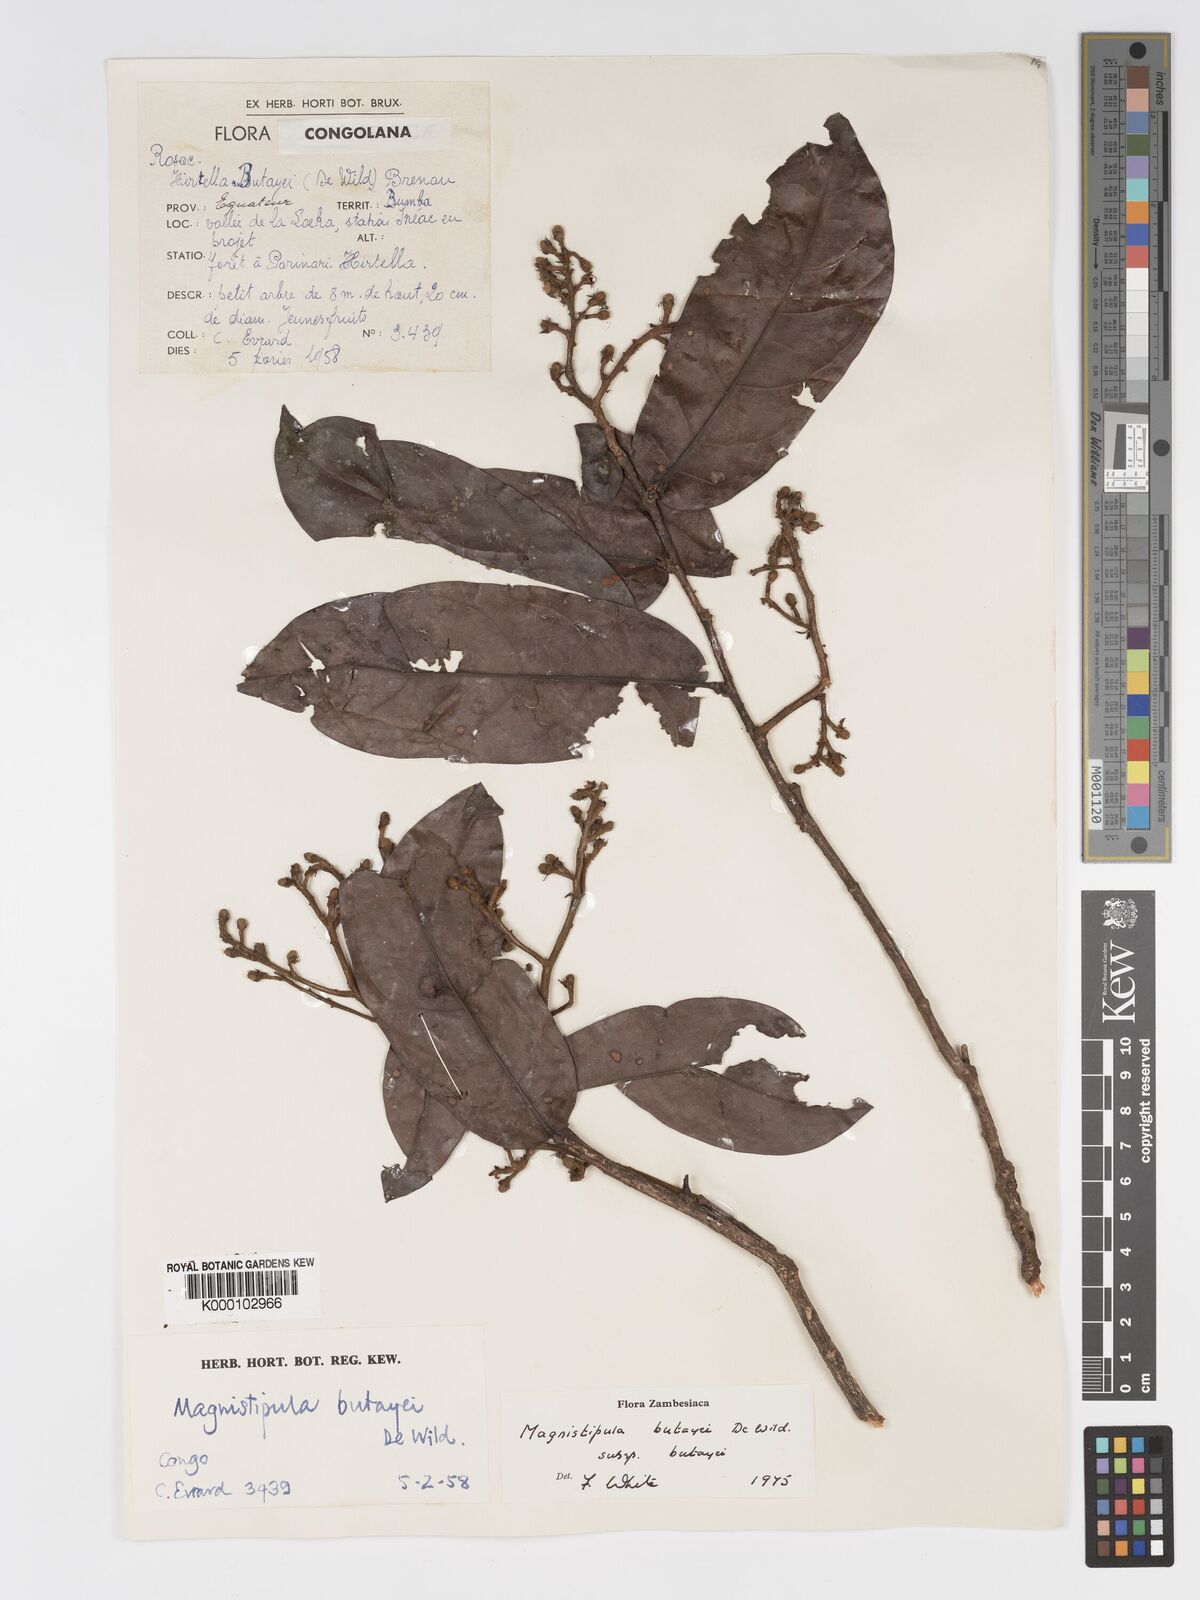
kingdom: Plantae
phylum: Tracheophyta
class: Magnoliopsida
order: Malpighiales
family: Chrysobalanaceae
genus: Magnistipula
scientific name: Magnistipula butayei
